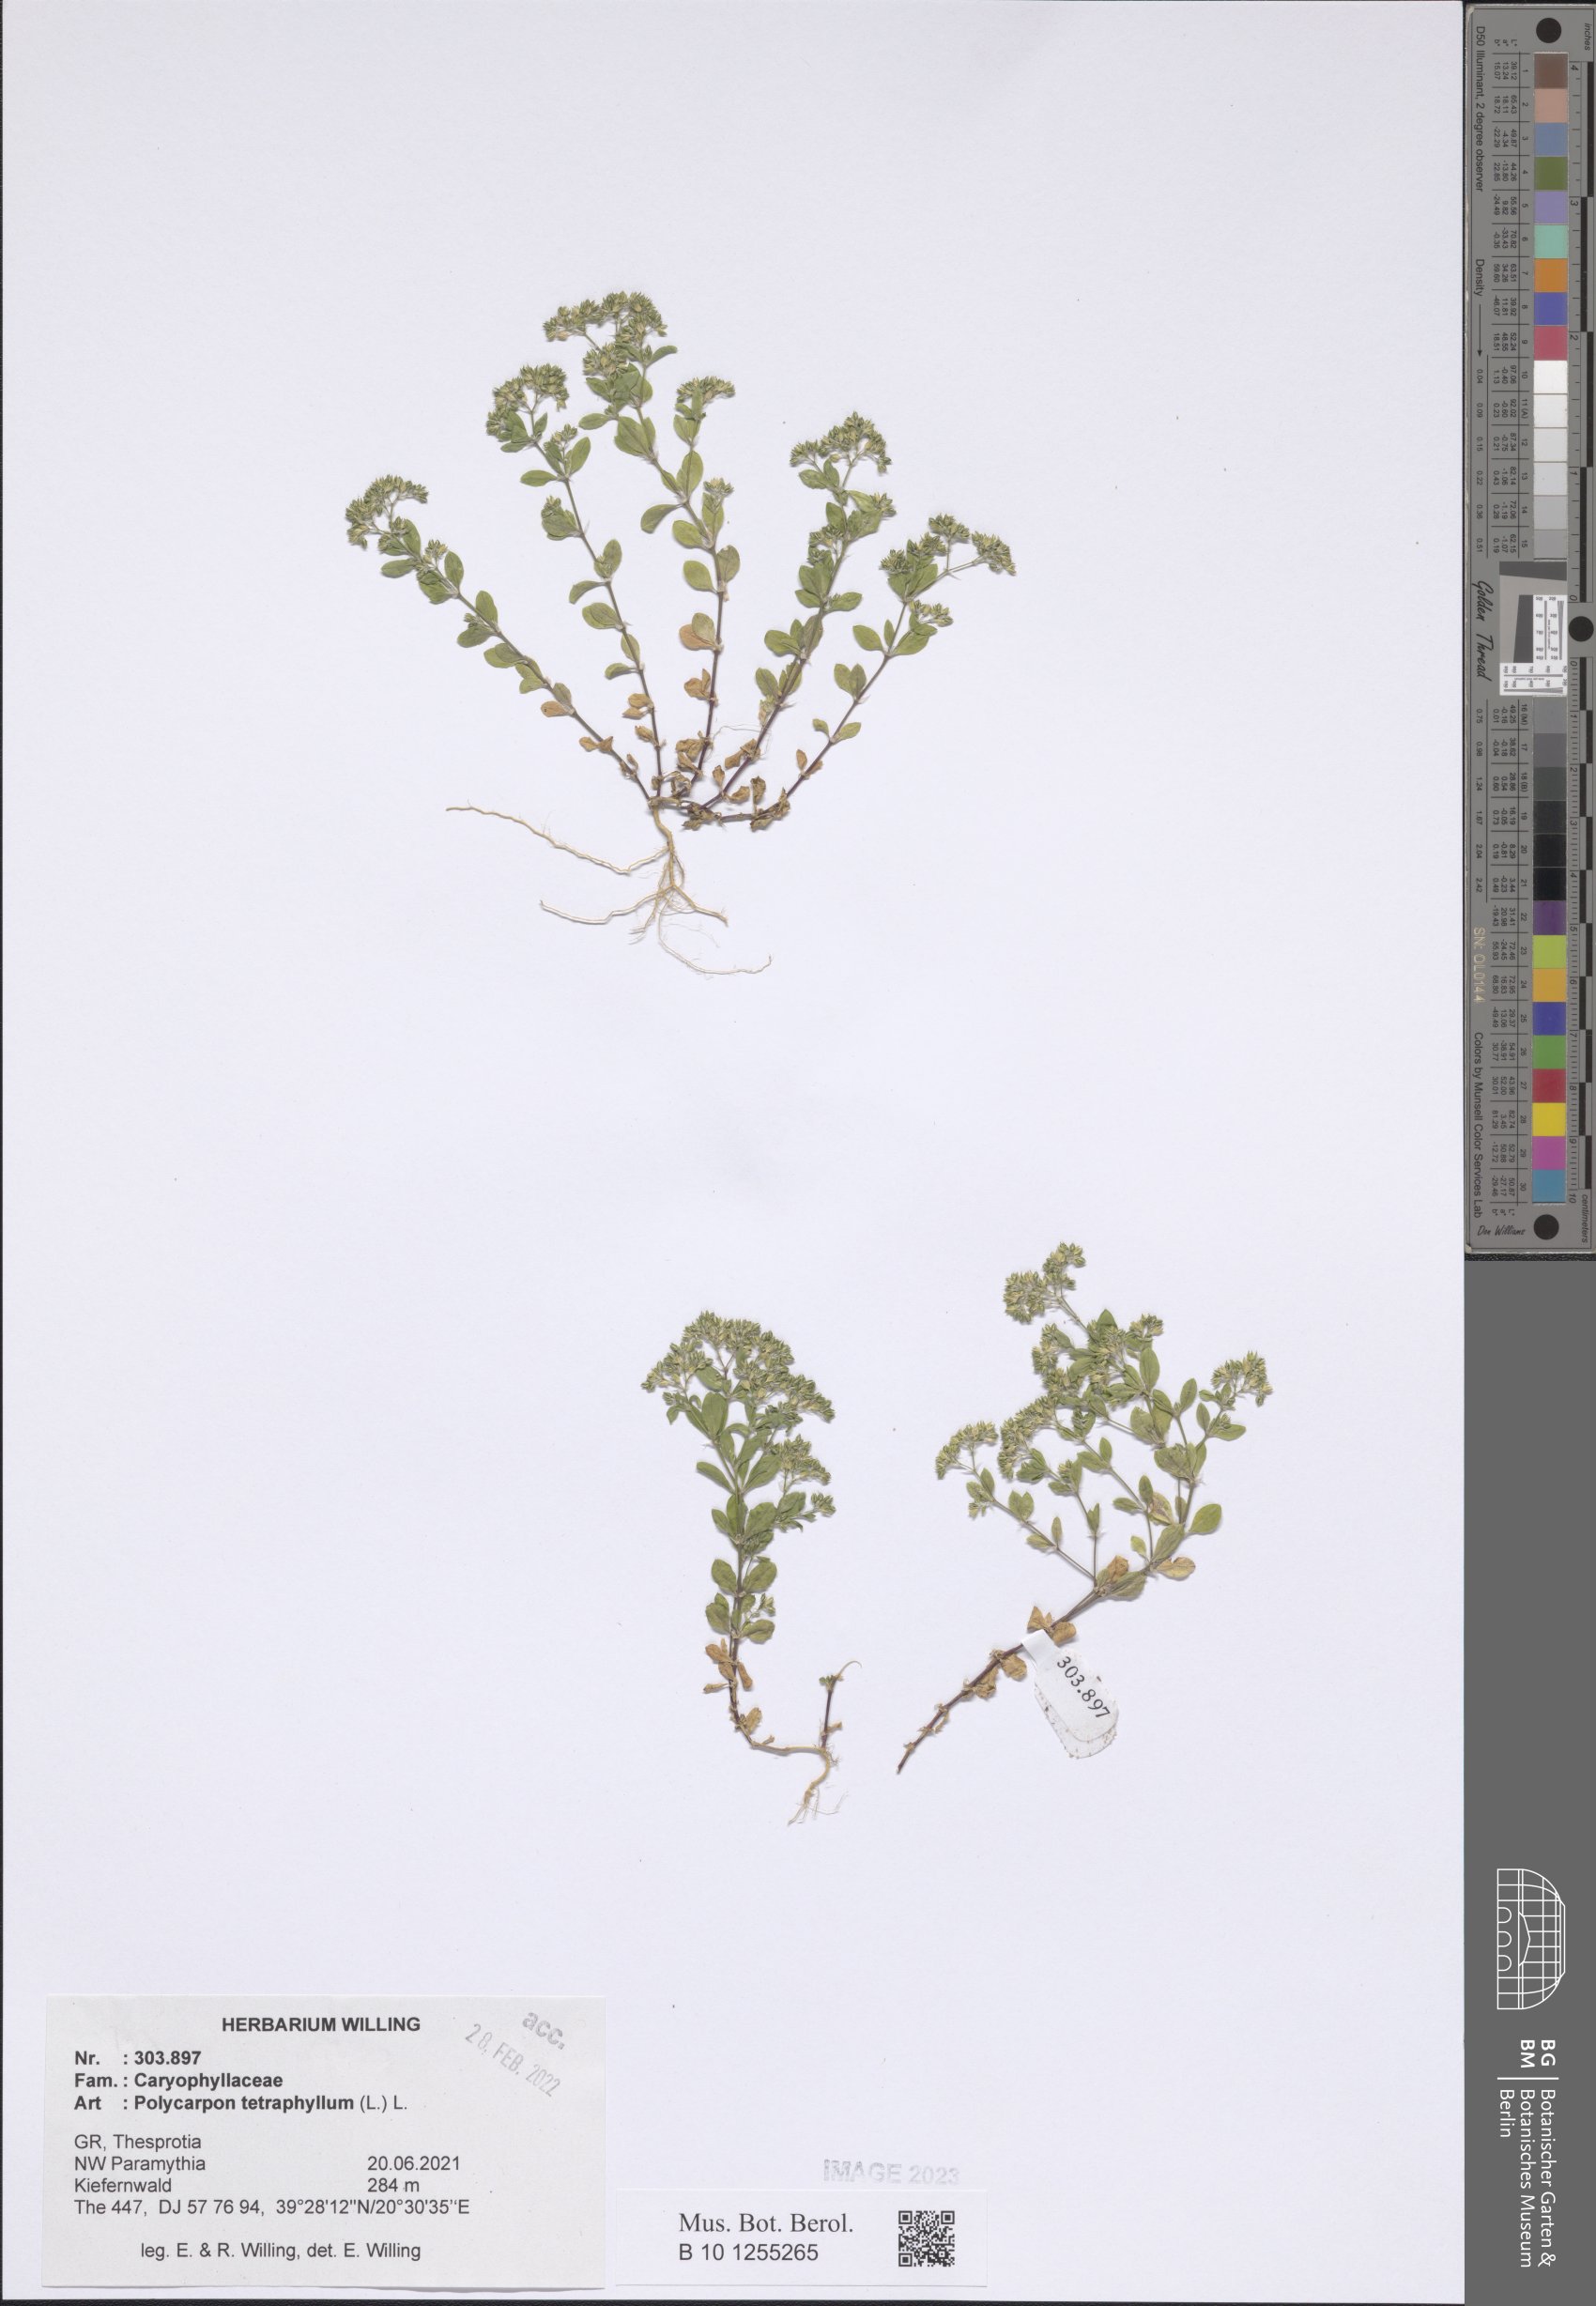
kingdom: Plantae
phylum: Tracheophyta
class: Magnoliopsida
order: Caryophyllales
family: Caryophyllaceae
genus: Polycarpon
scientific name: Polycarpon tetraphyllum
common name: Four-leaved all-seed
